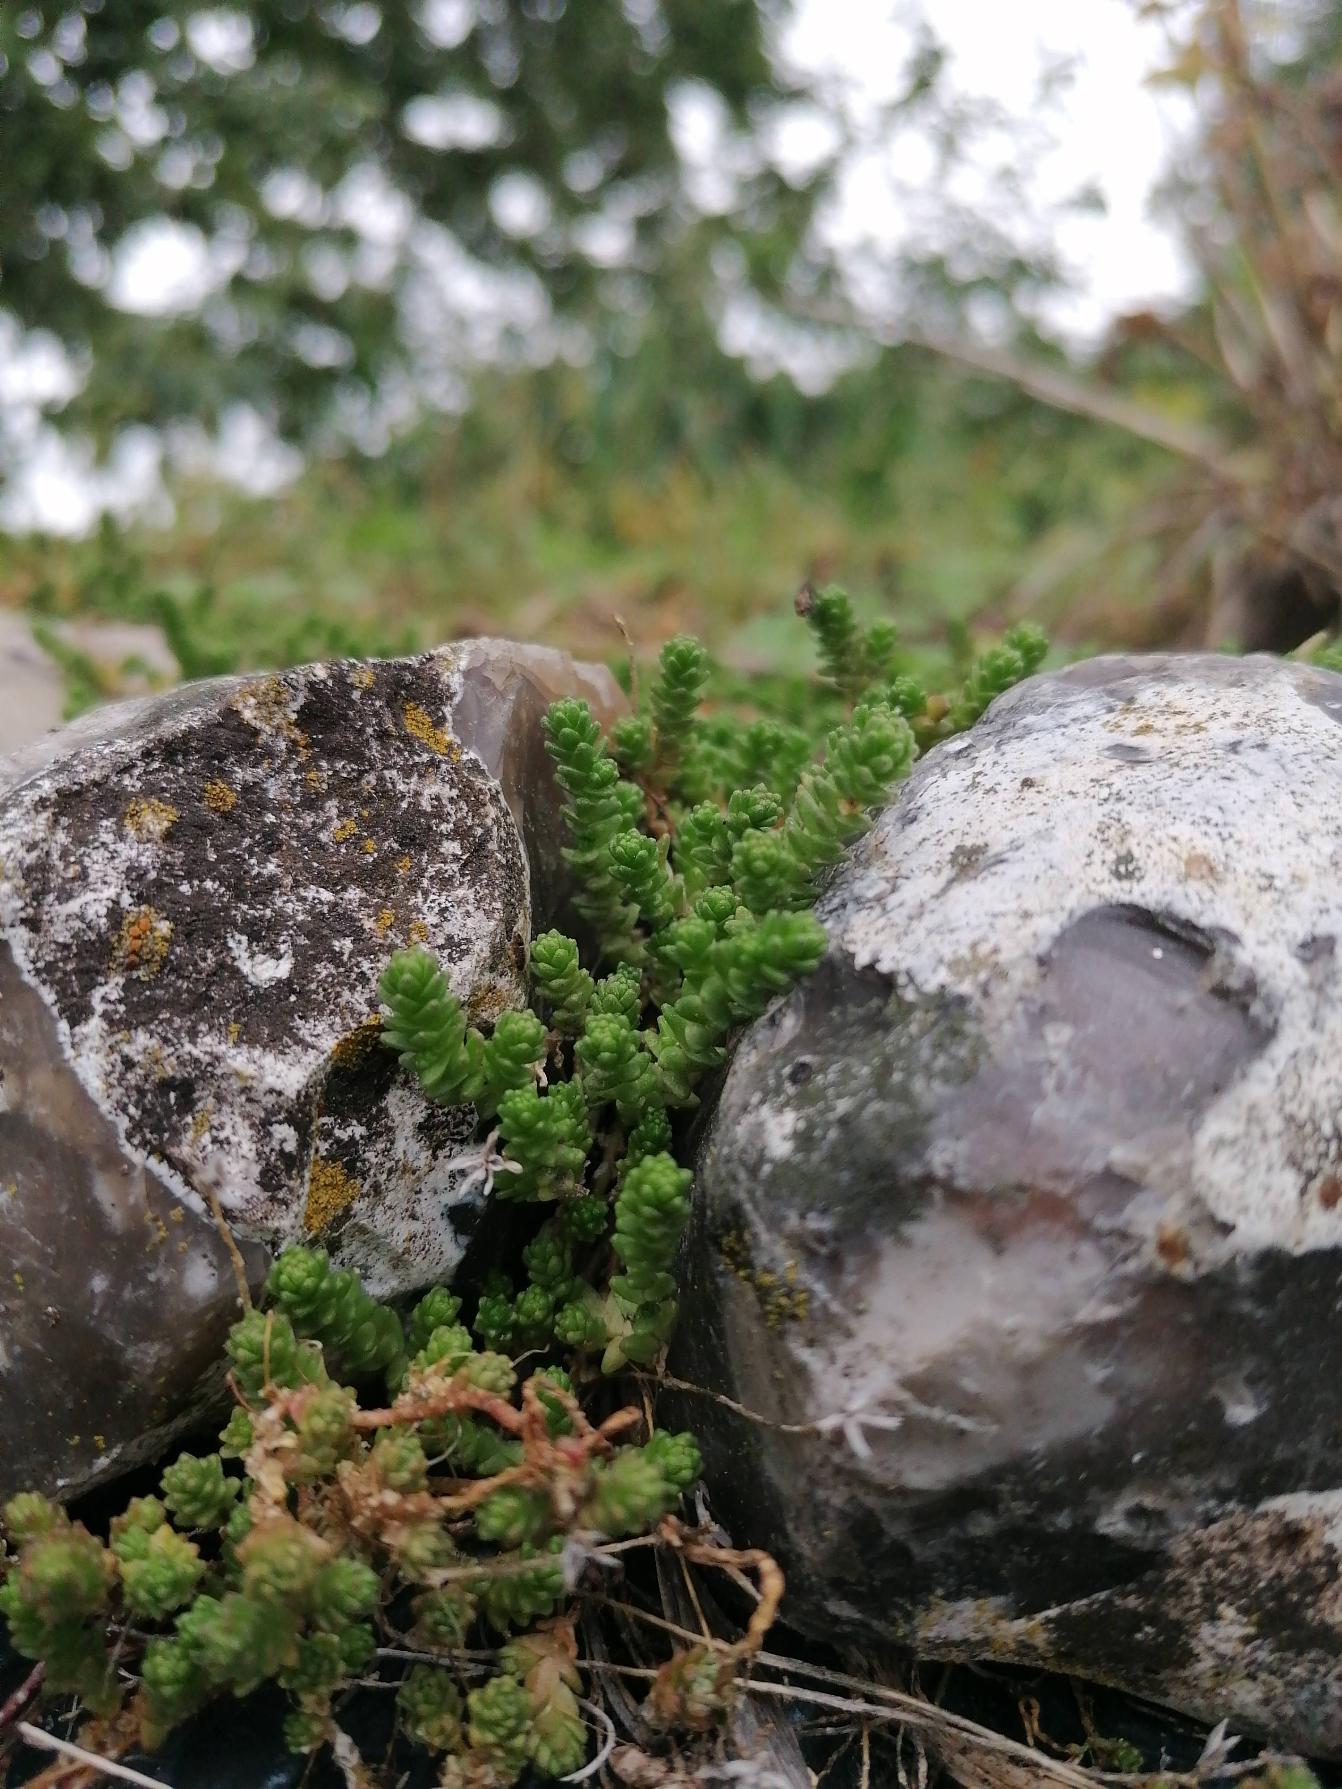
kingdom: Plantae
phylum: Tracheophyta
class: Magnoliopsida
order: Saxifragales
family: Crassulaceae
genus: Sedum
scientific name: Sedum acre
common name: Bidende stenurt
